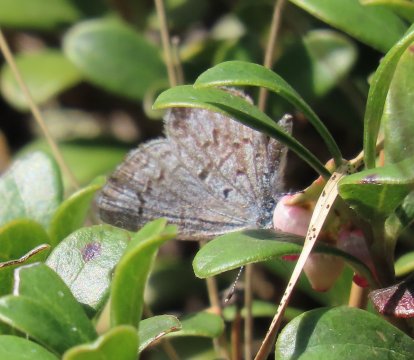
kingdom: Animalia
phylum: Arthropoda
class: Insecta
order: Lepidoptera
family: Lycaenidae
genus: Celastrina
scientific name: Celastrina lucia
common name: Northern Spring Azure
